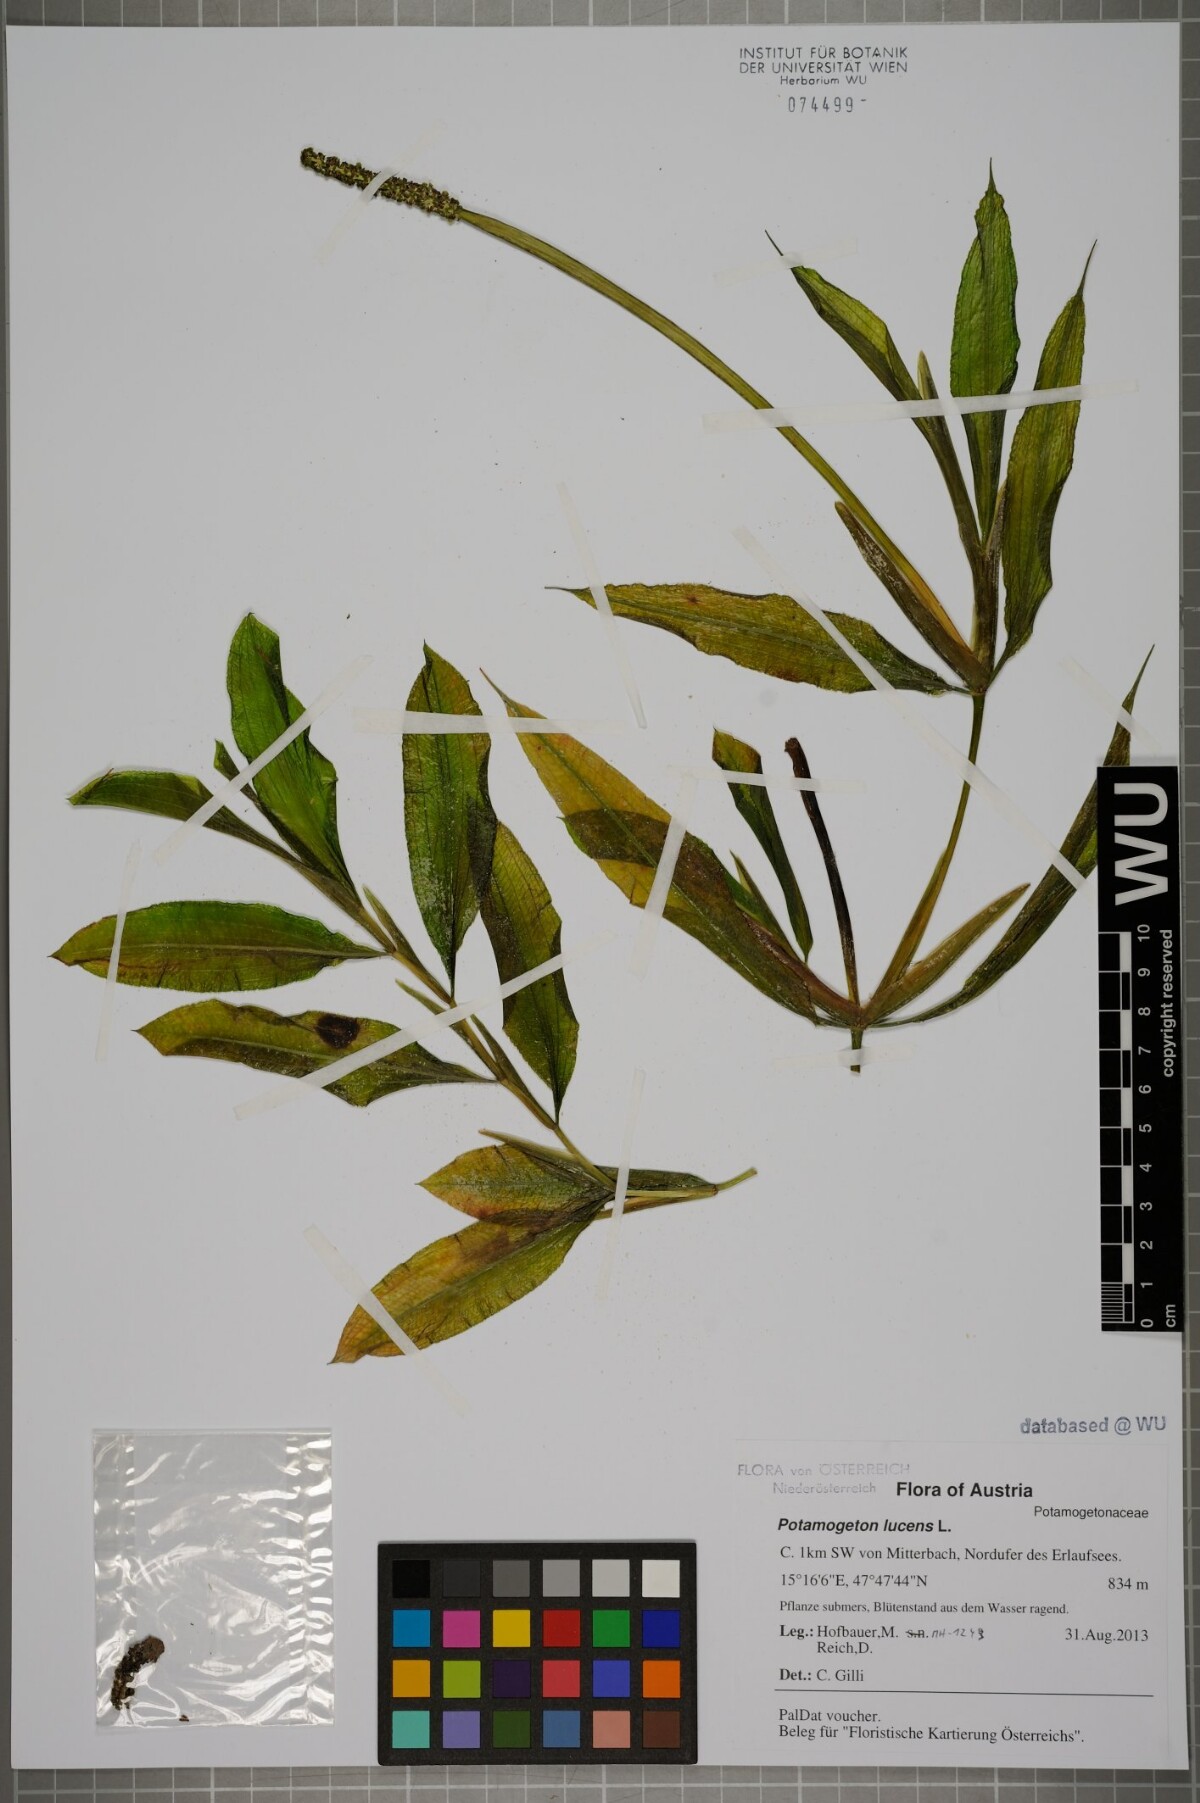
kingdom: Plantae
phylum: Tracheophyta
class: Liliopsida
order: Alismatales
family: Potamogetonaceae
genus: Potamogeton
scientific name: Potamogeton lucens
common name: Shining pondweed
